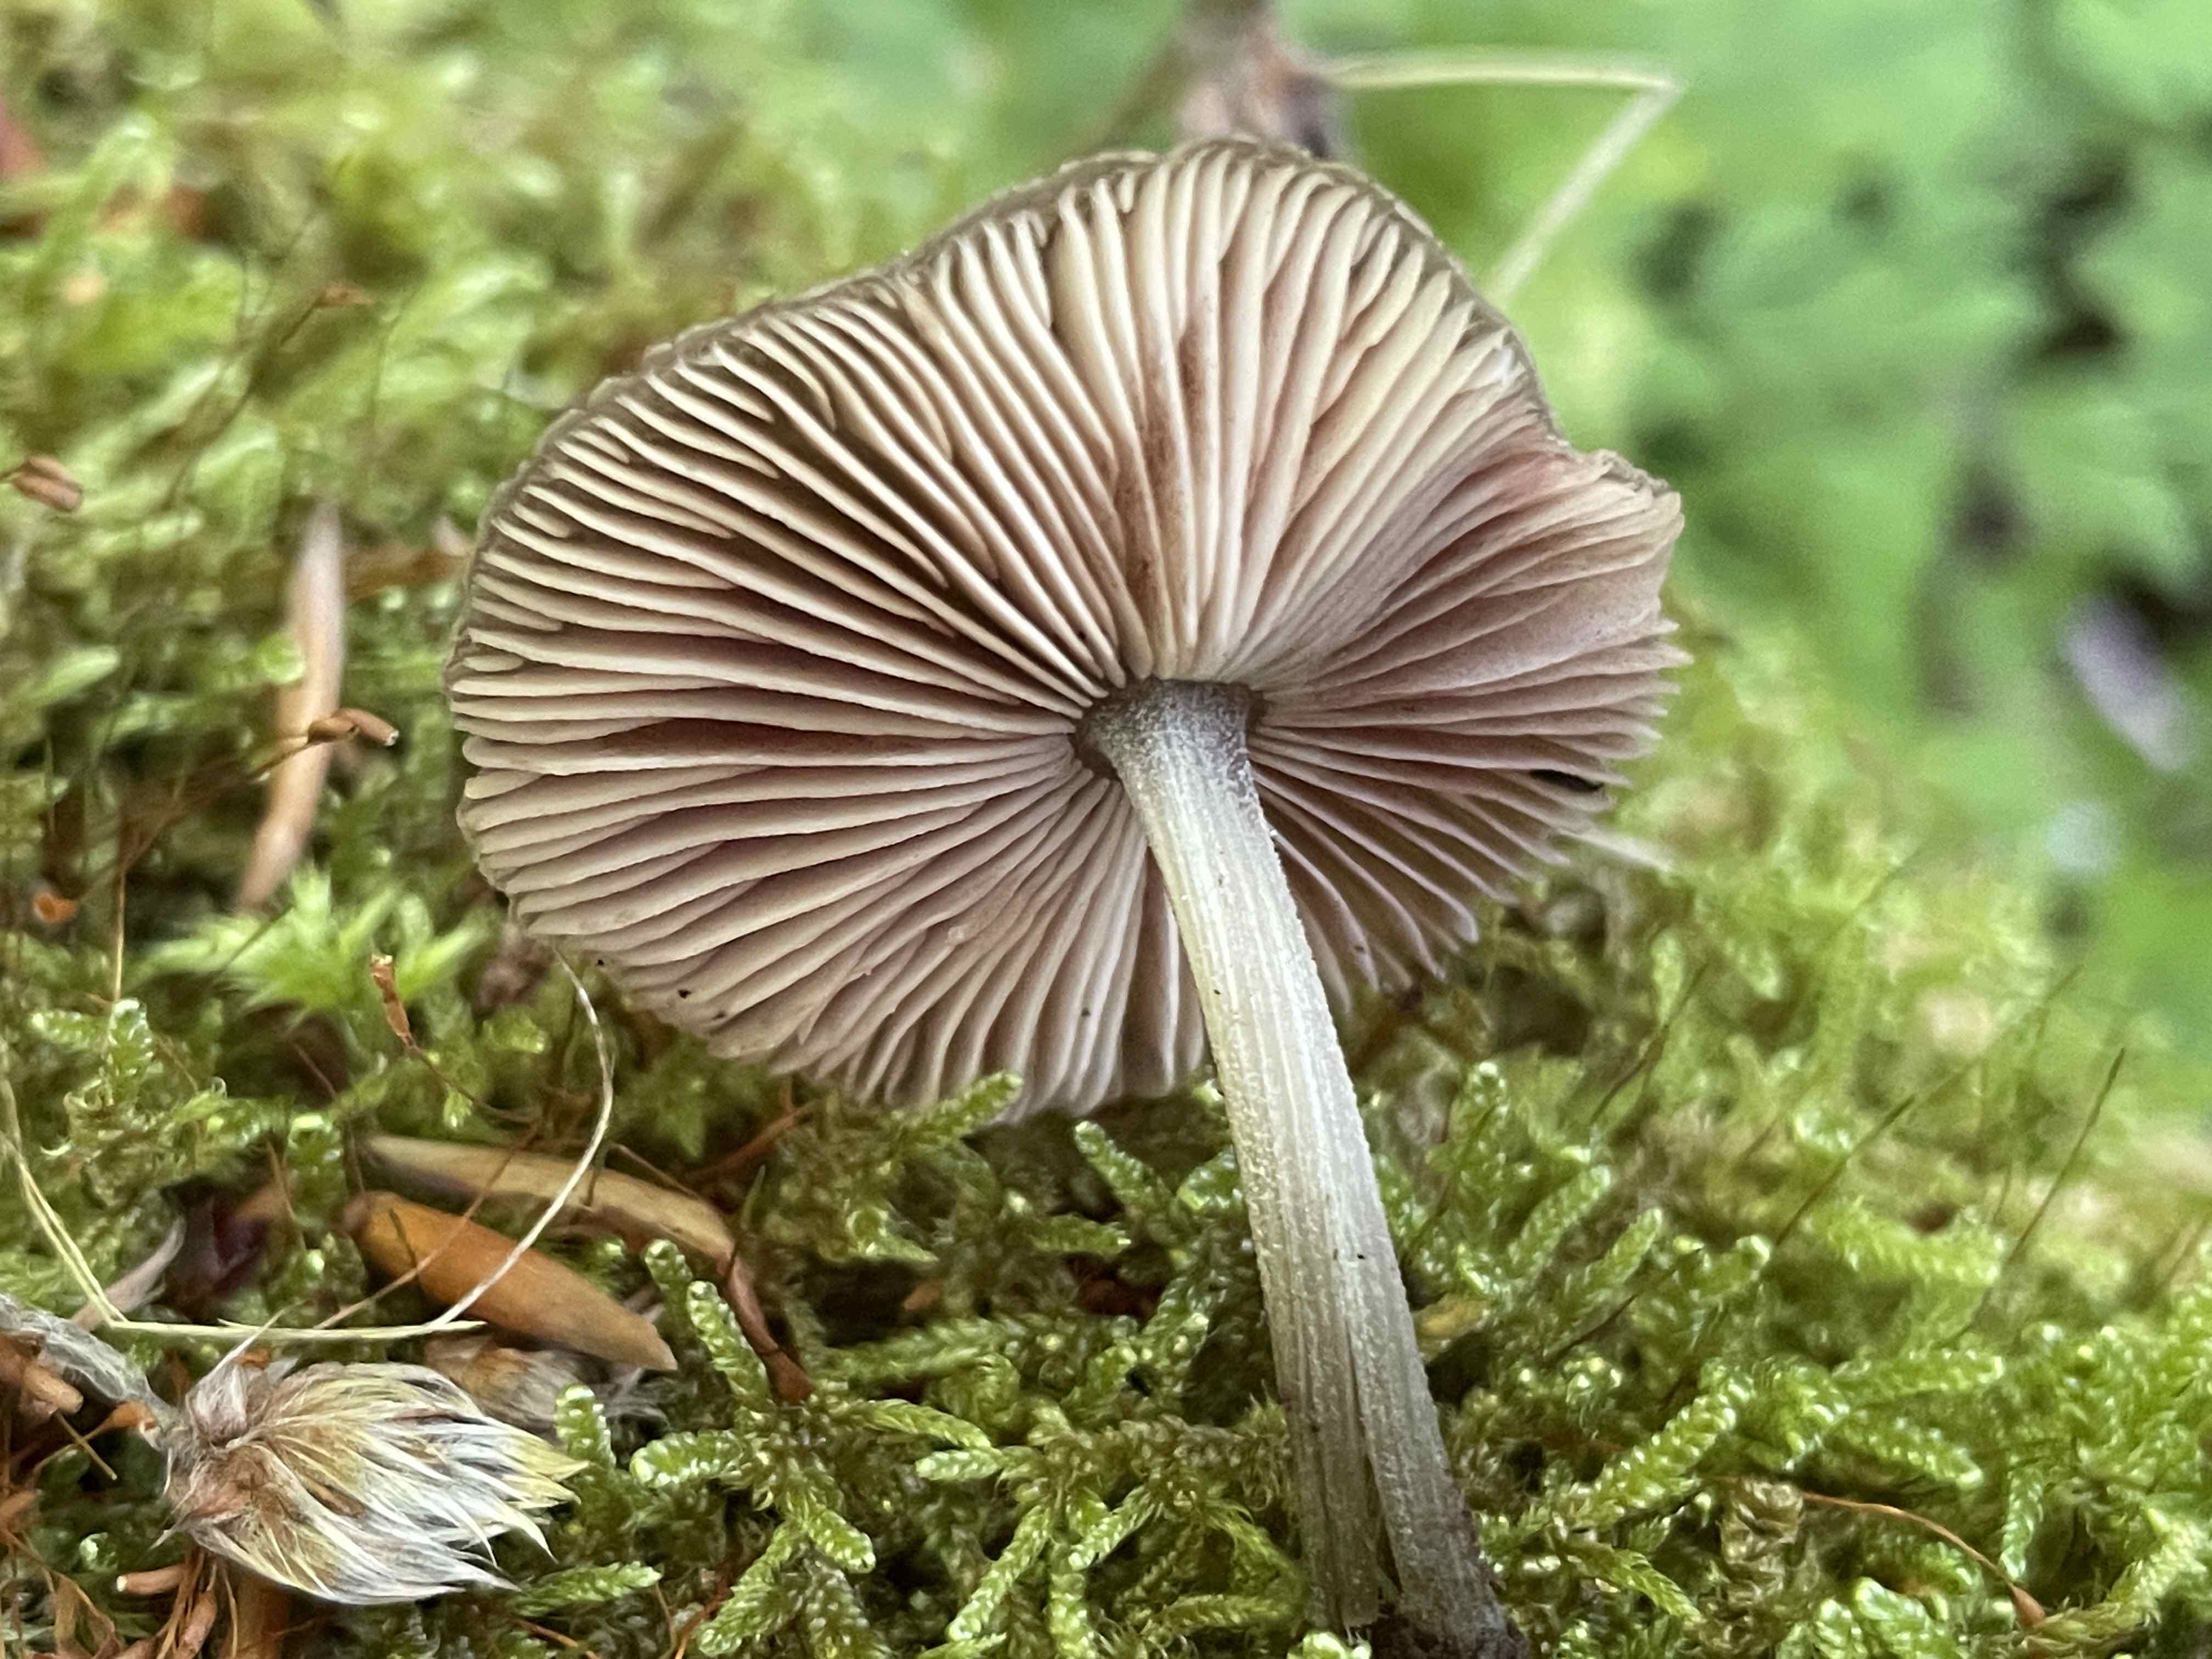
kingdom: Fungi
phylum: Basidiomycota
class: Agaricomycetes
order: Agaricales
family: Pluteaceae
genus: Pluteus
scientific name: Pluteus diverticulatus
